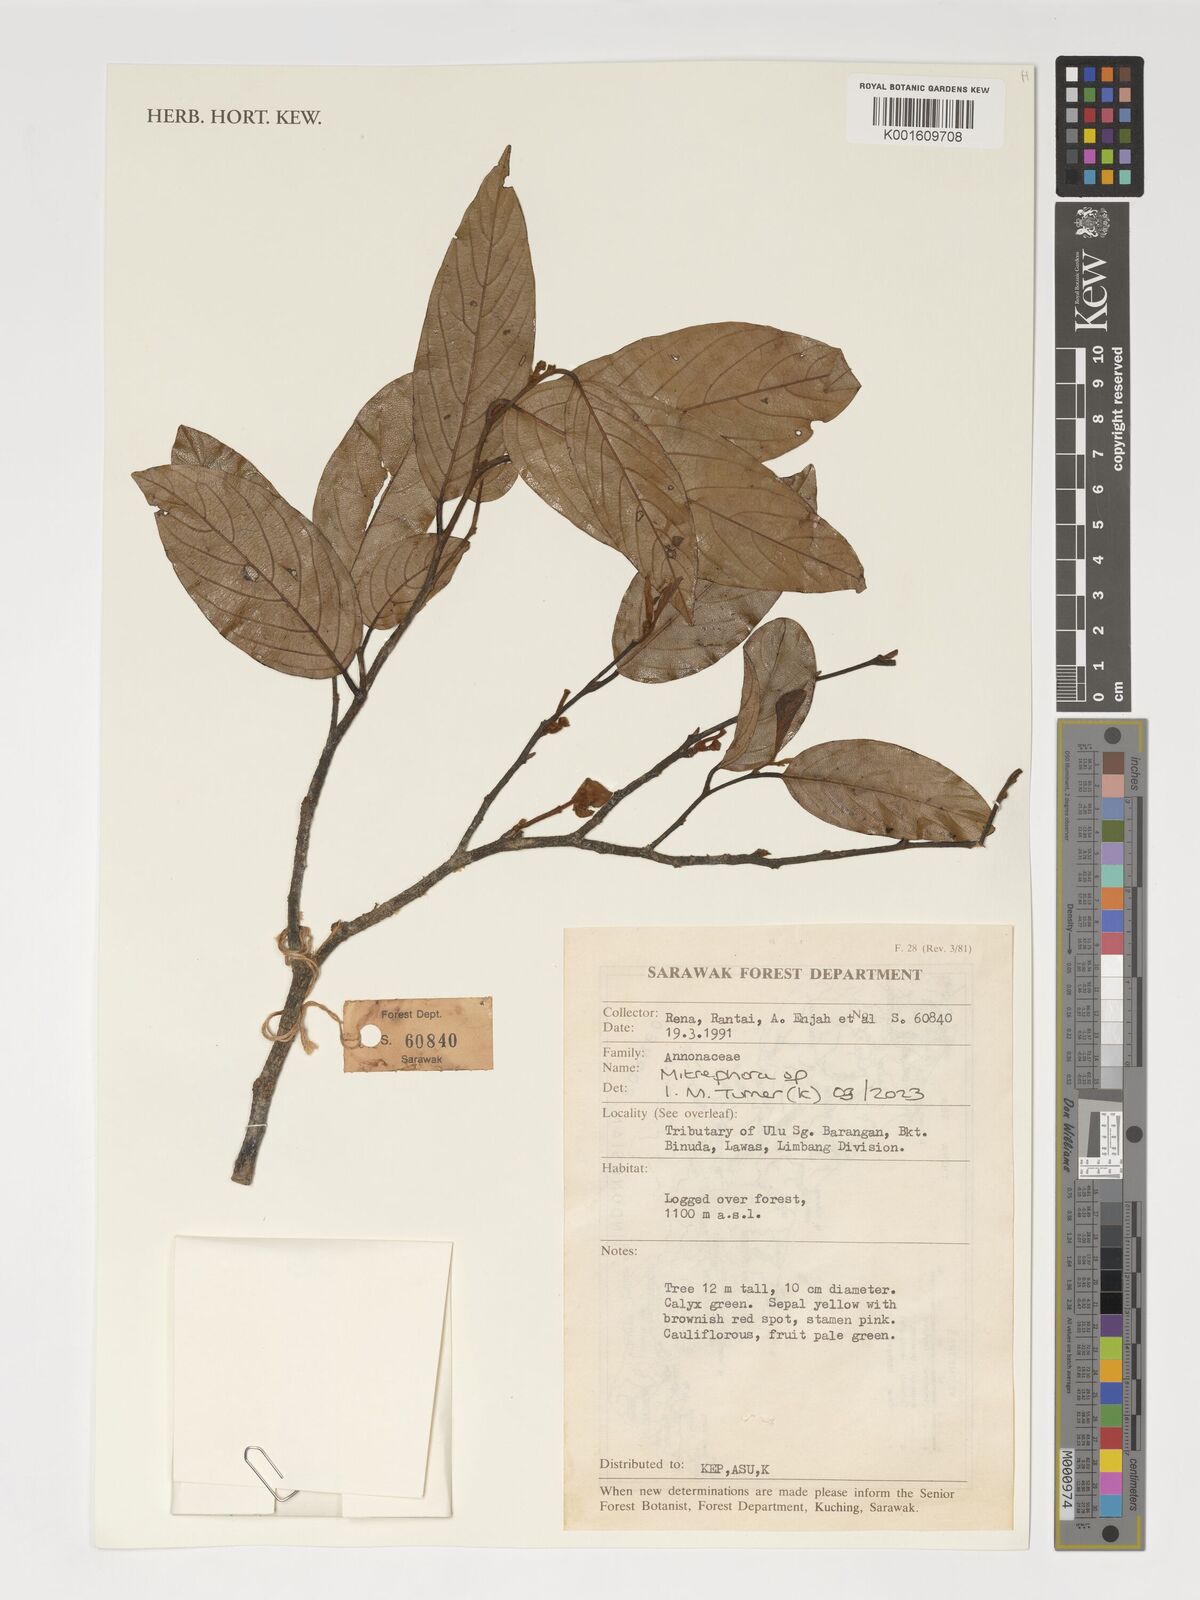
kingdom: Plantae
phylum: Tracheophyta
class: Magnoliopsida
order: Magnoliales
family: Annonaceae
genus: Mitrephora
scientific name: Mitrephora
